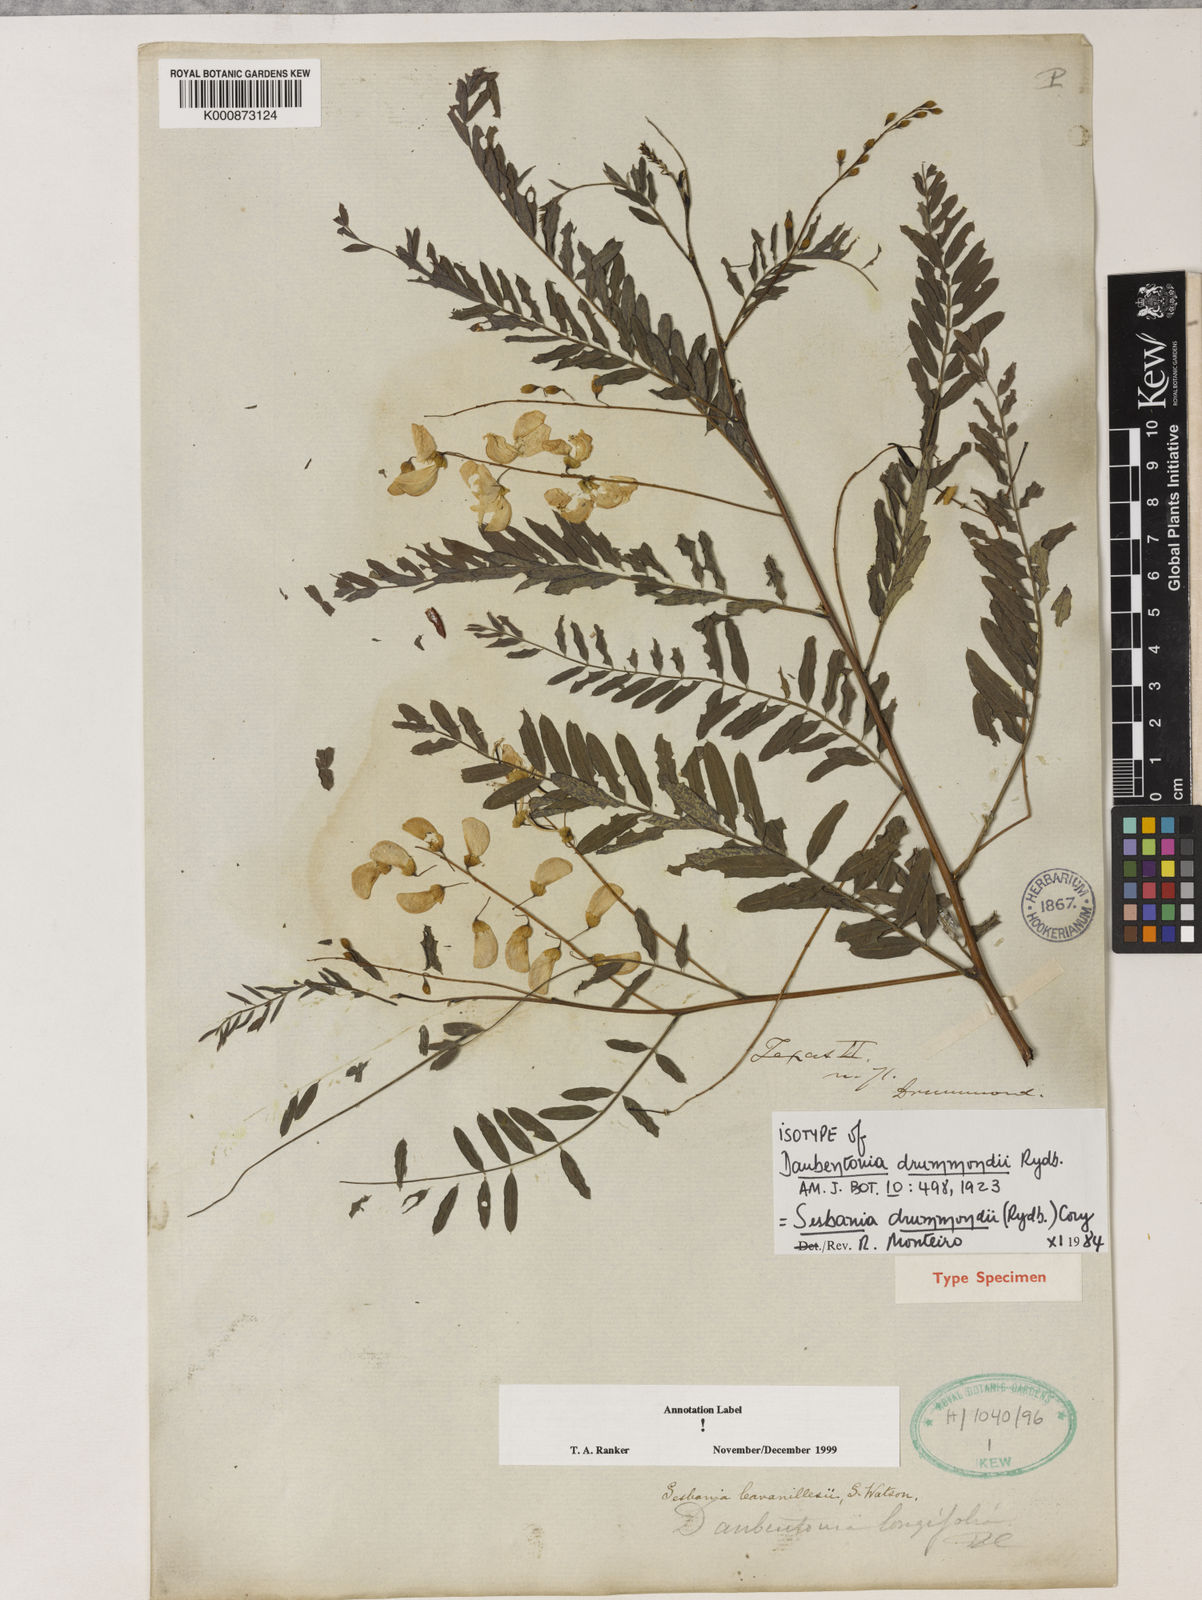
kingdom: Plantae
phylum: Tracheophyta
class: Magnoliopsida
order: Fabales
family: Fabaceae
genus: Sesbania
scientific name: Sesbania drummondii
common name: Poison-bean
